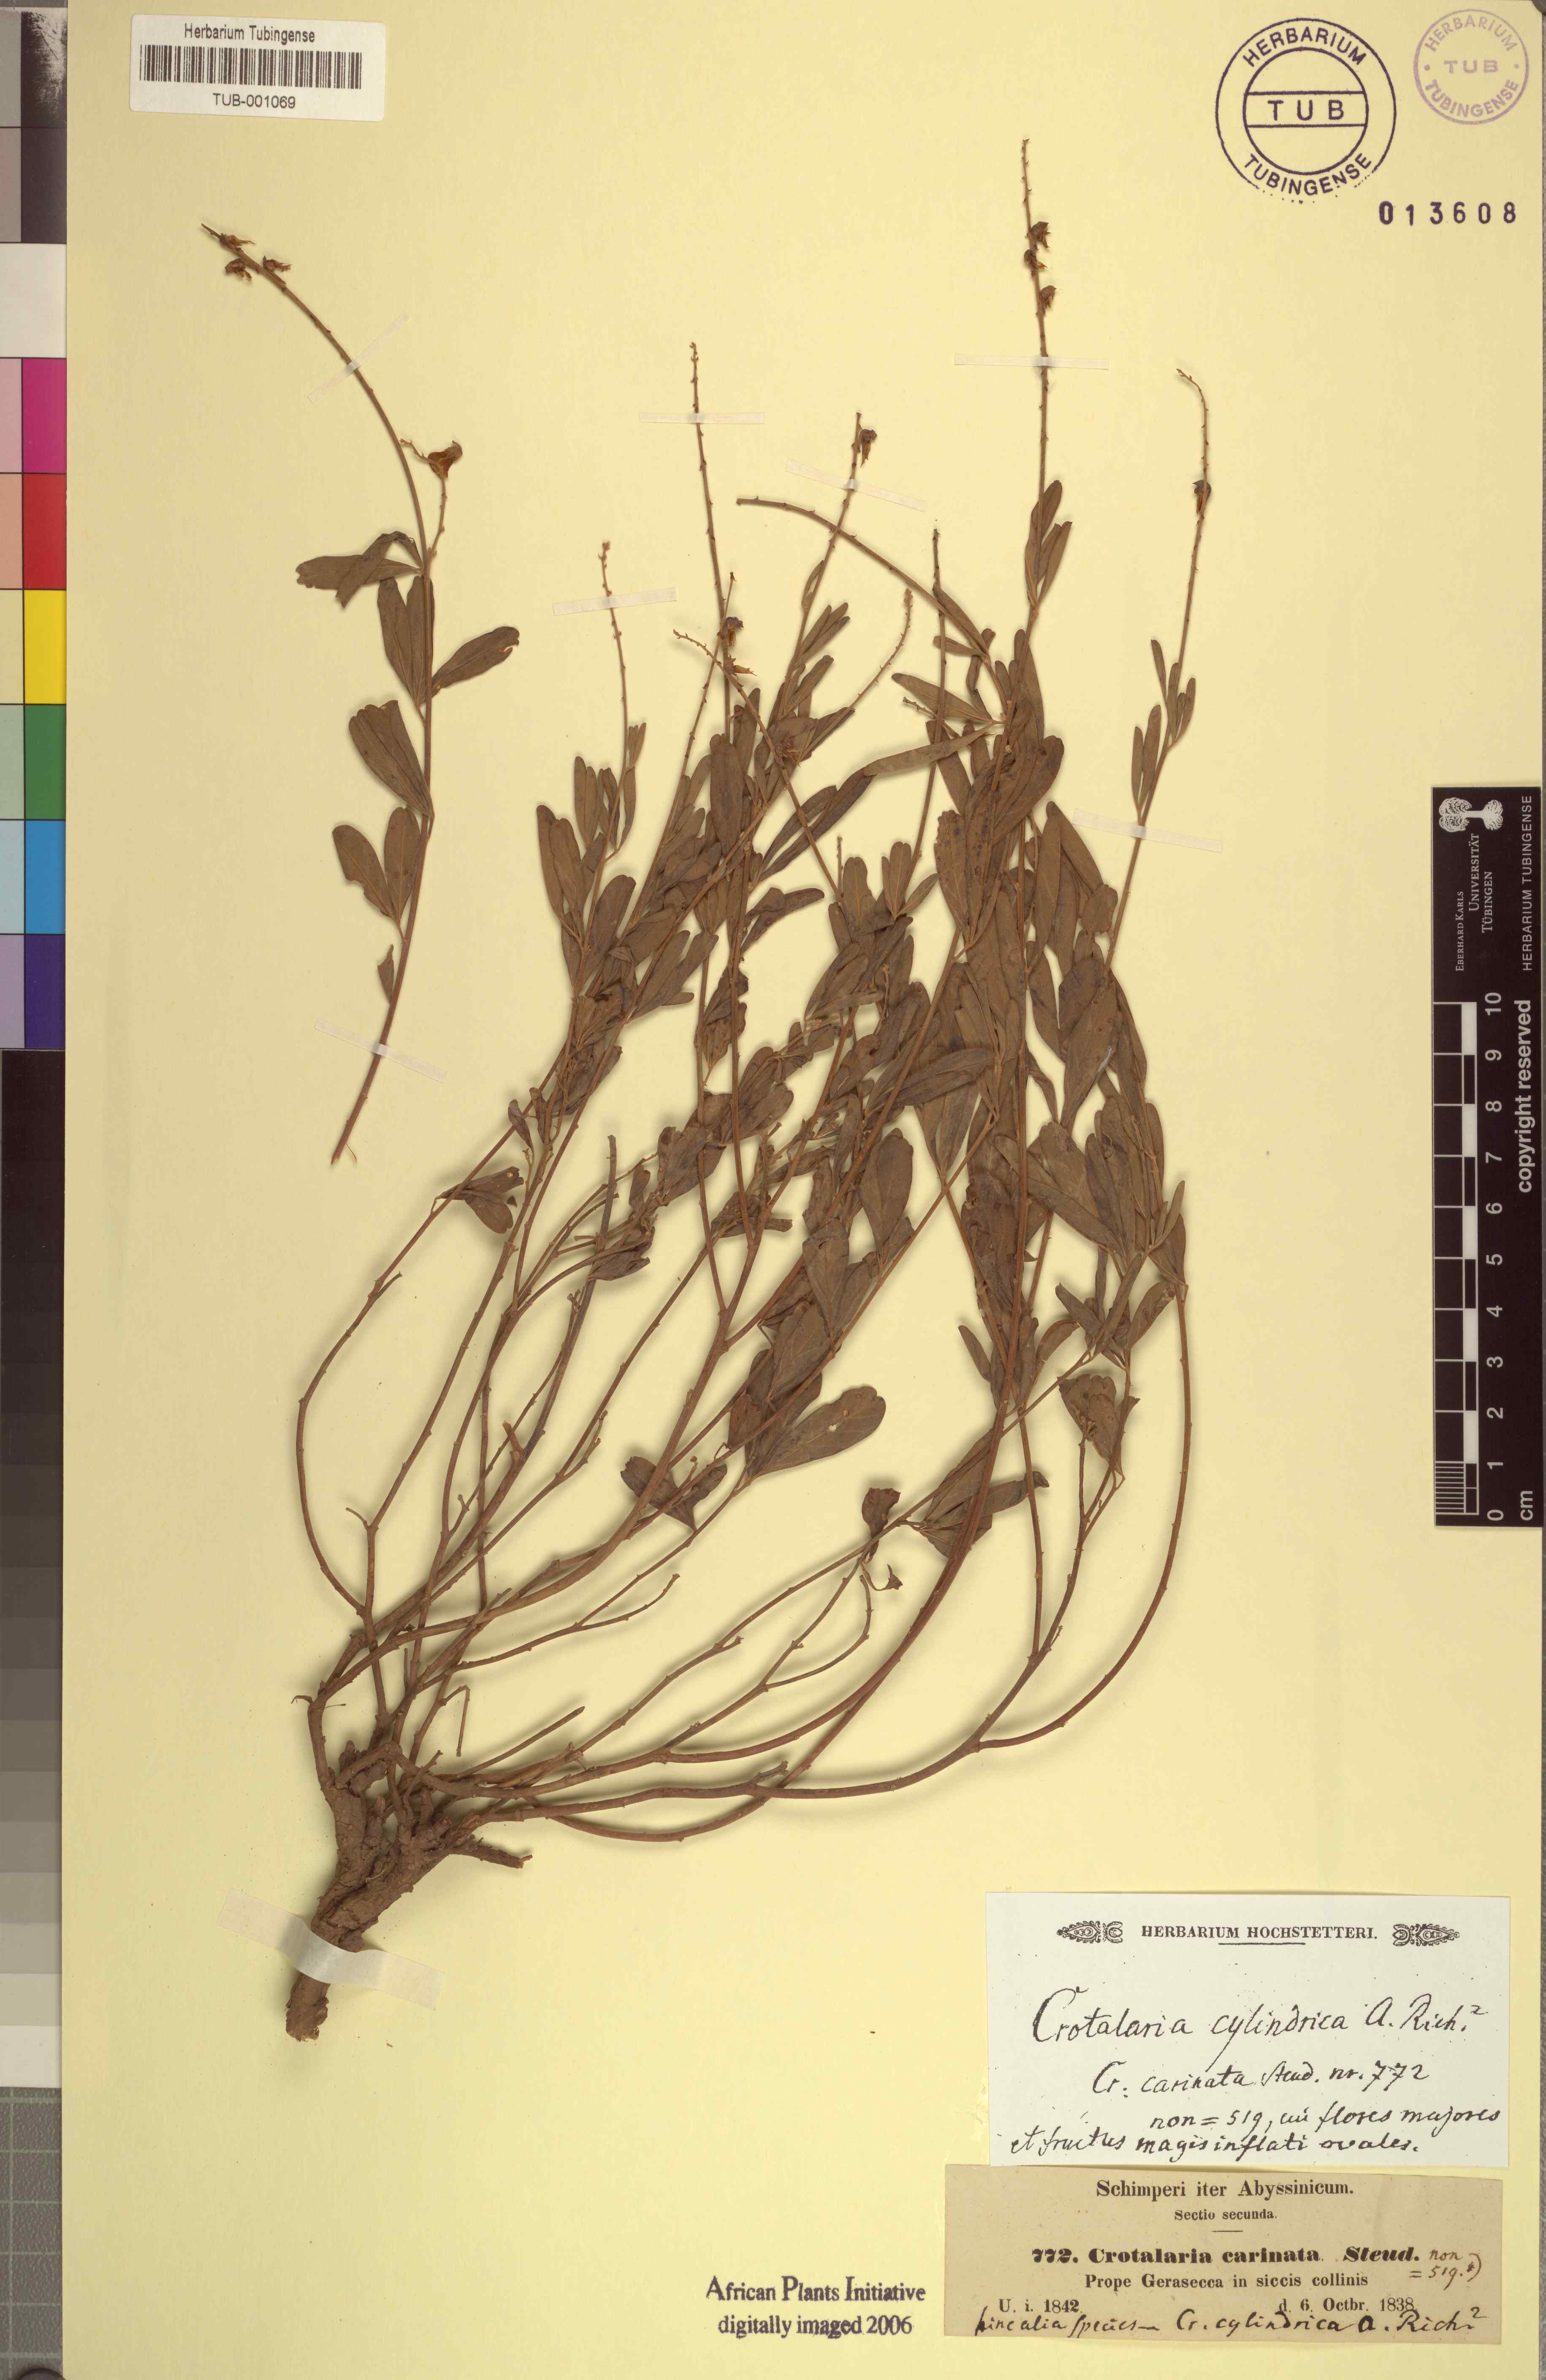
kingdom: Plantae
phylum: Tracheophyta
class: Magnoliopsida
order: Fabales
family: Fabaceae
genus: Crotalaria
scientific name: Crotalaria emarginata
